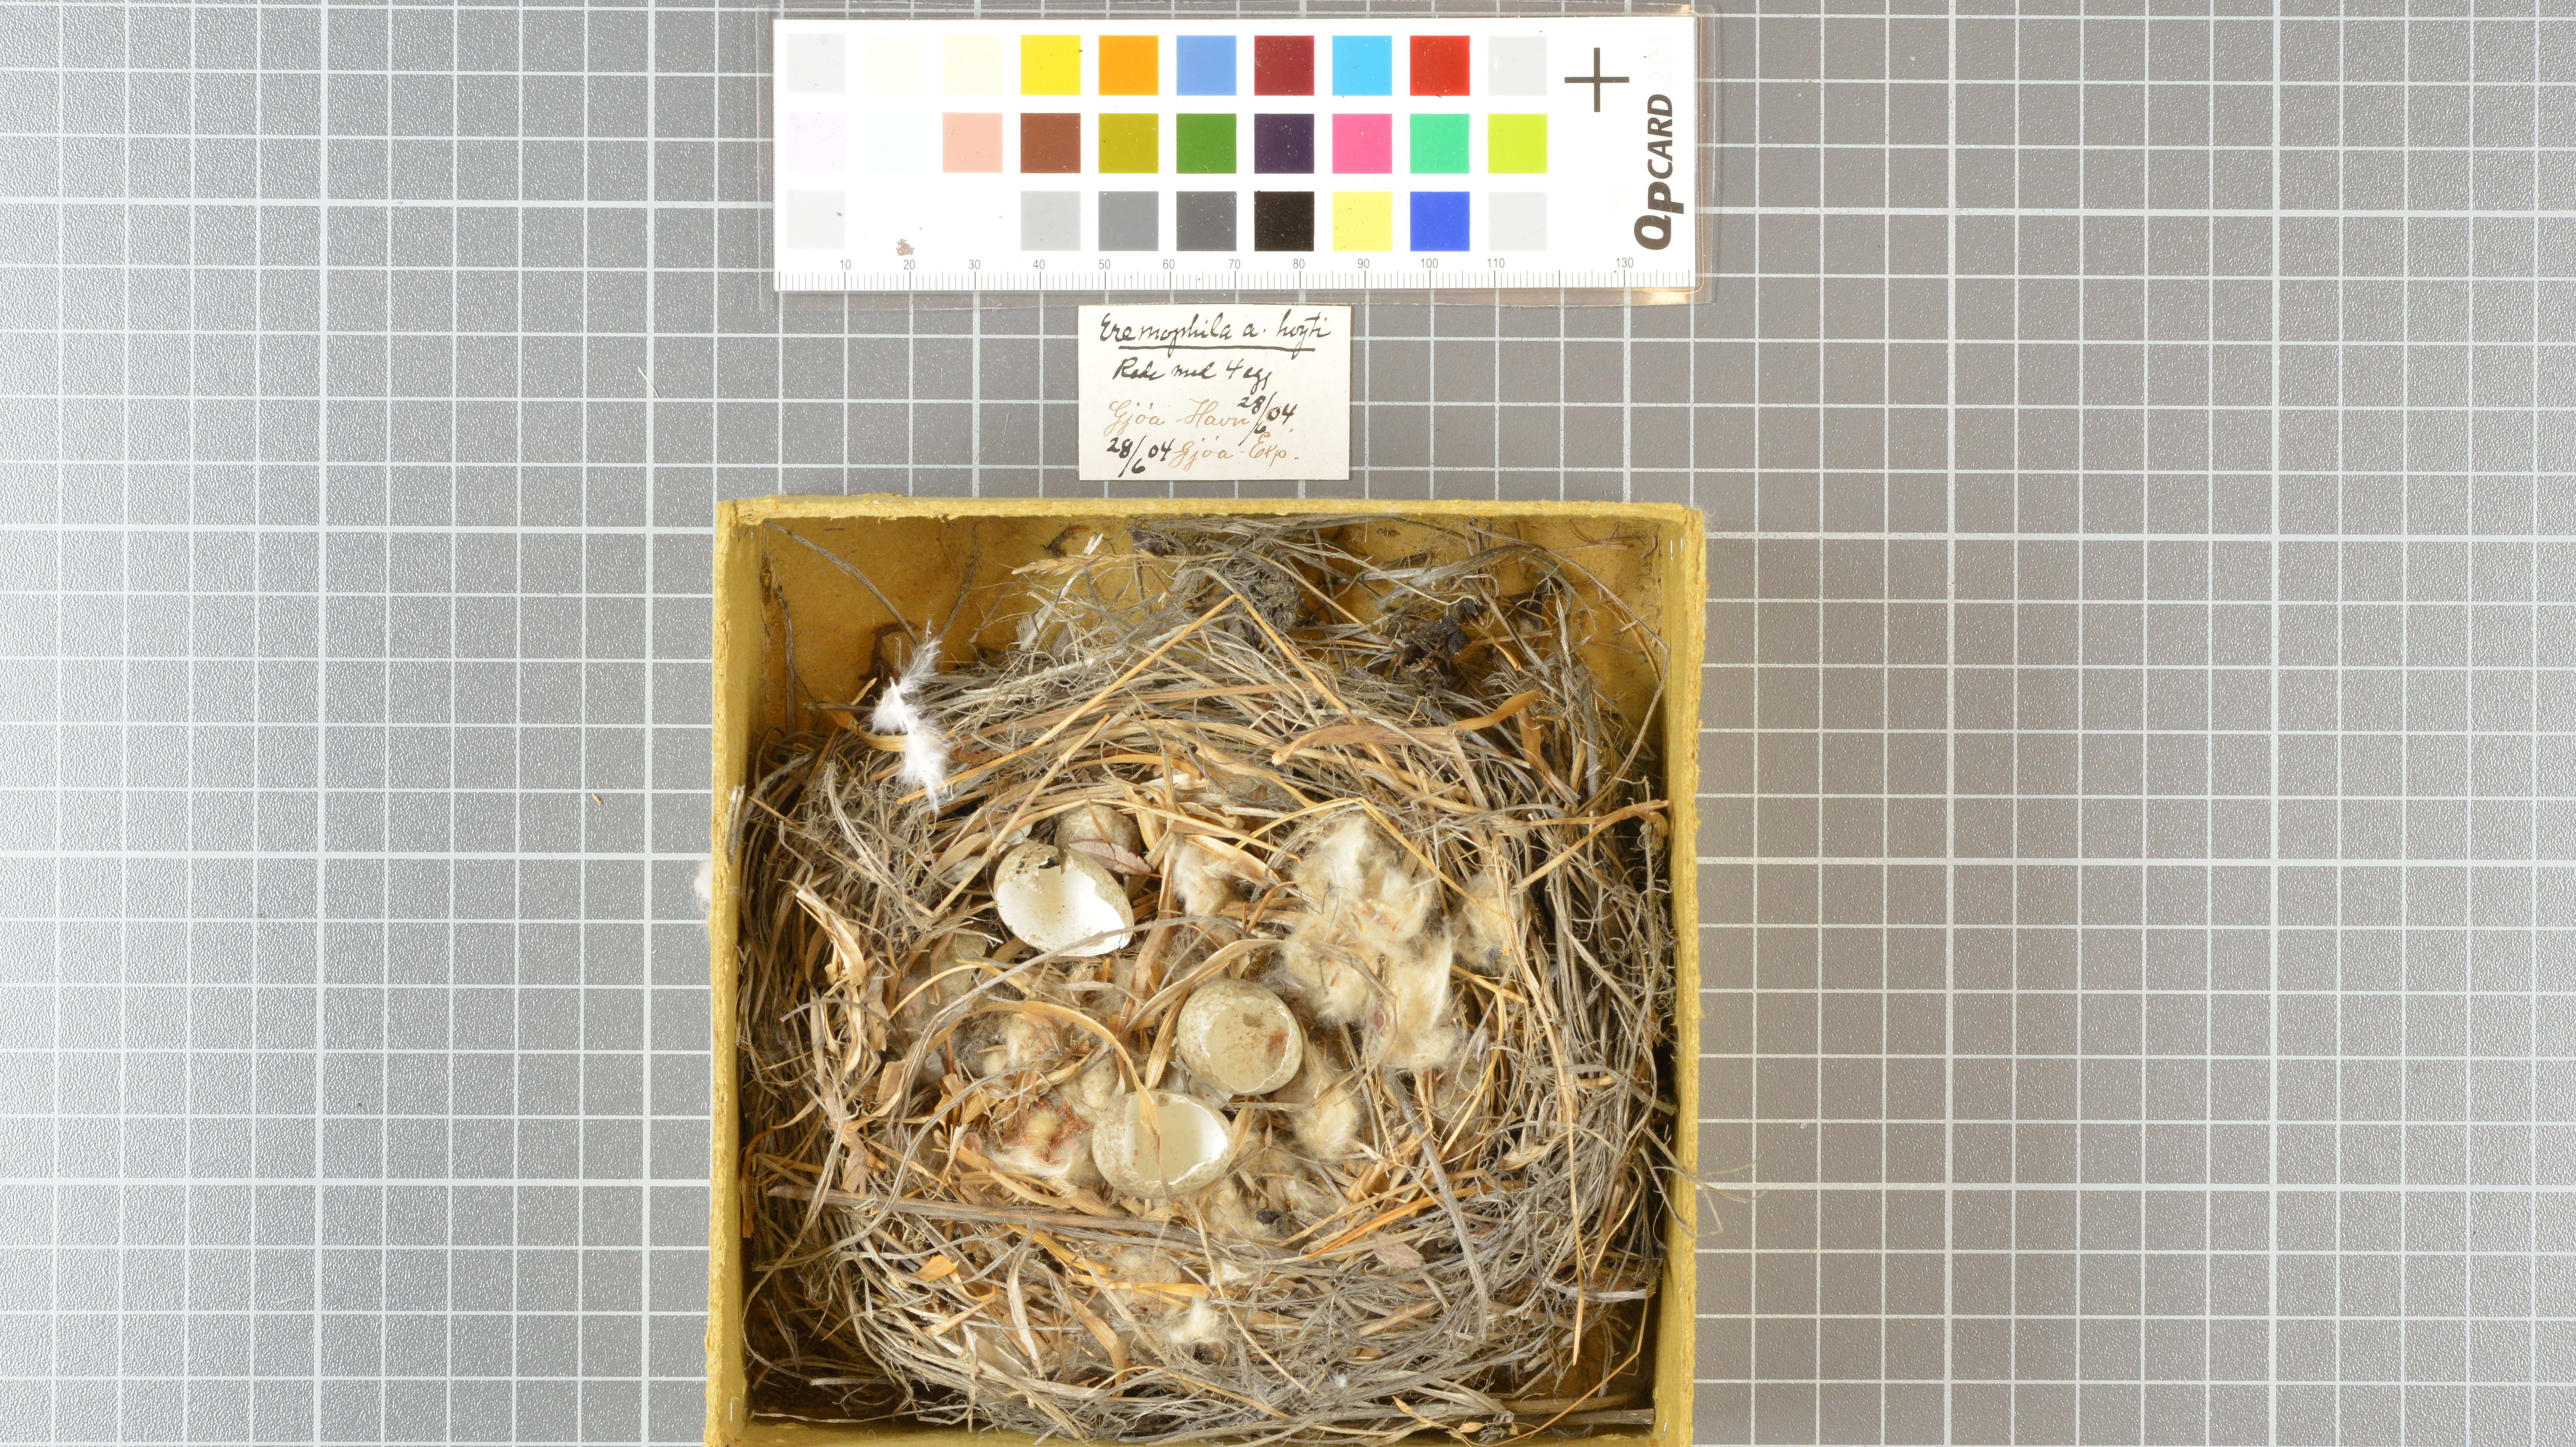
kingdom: Animalia
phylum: Chordata
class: Aves
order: Passeriformes
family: Alaudidae
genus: Eremophila
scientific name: Eremophila alpestris
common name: Horned lark
